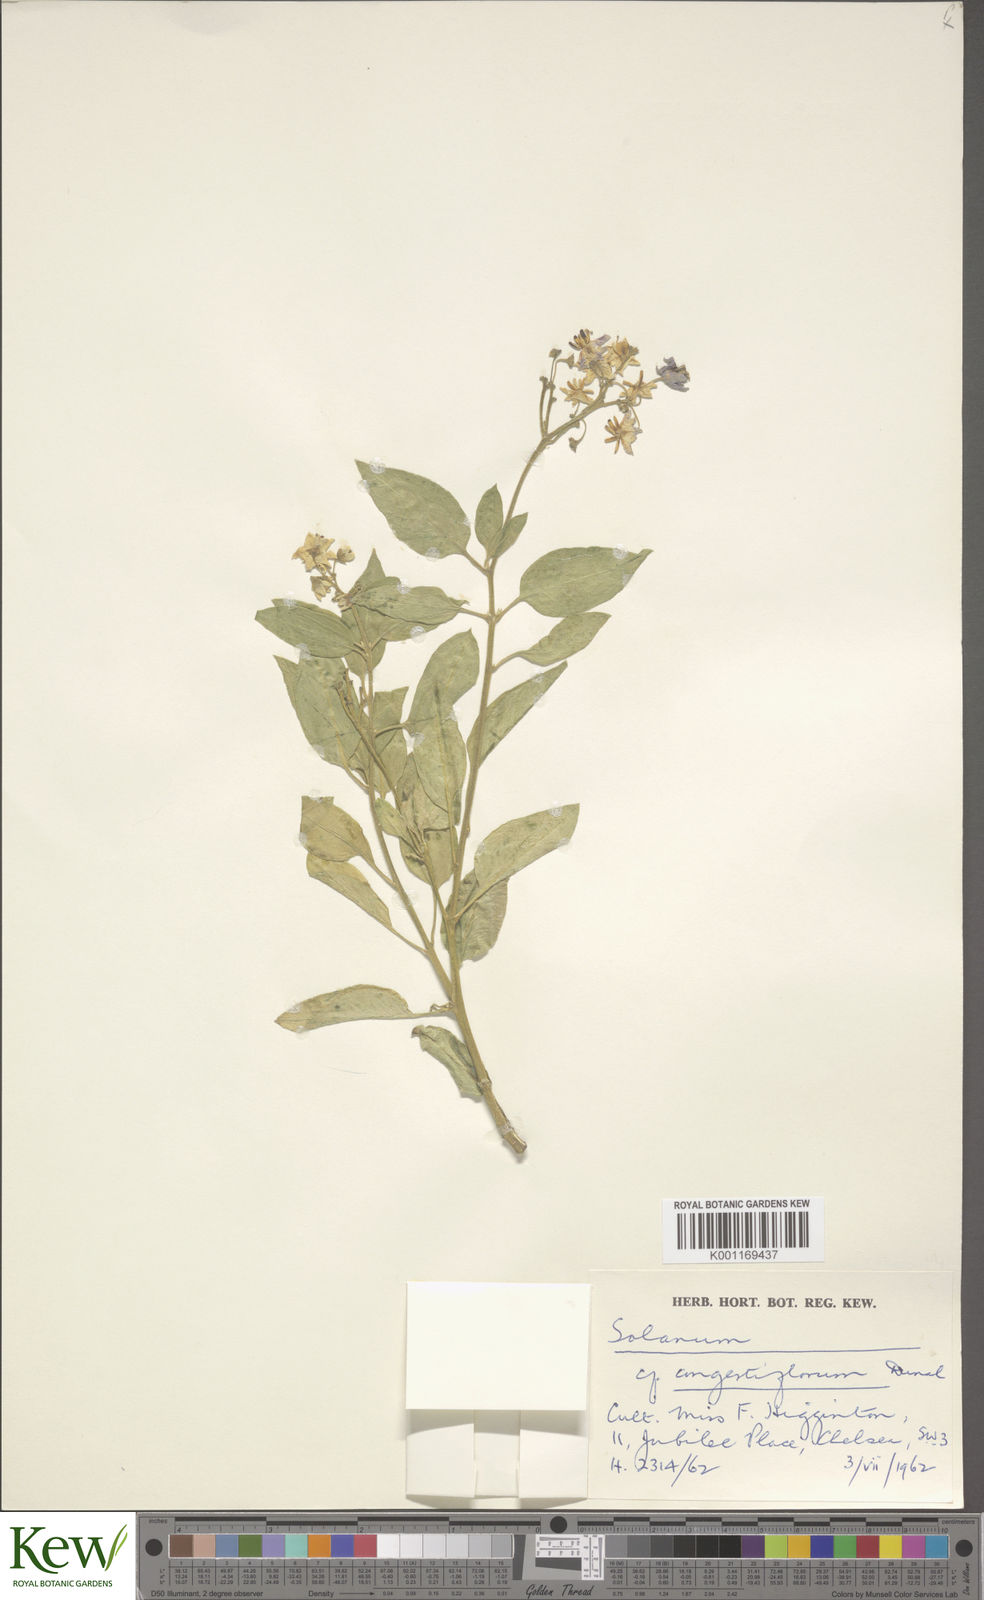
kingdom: Plantae
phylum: Tracheophyta
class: Magnoliopsida
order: Solanales
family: Solanaceae
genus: Solanum
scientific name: Solanum crispum
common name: Chilean nightshade
